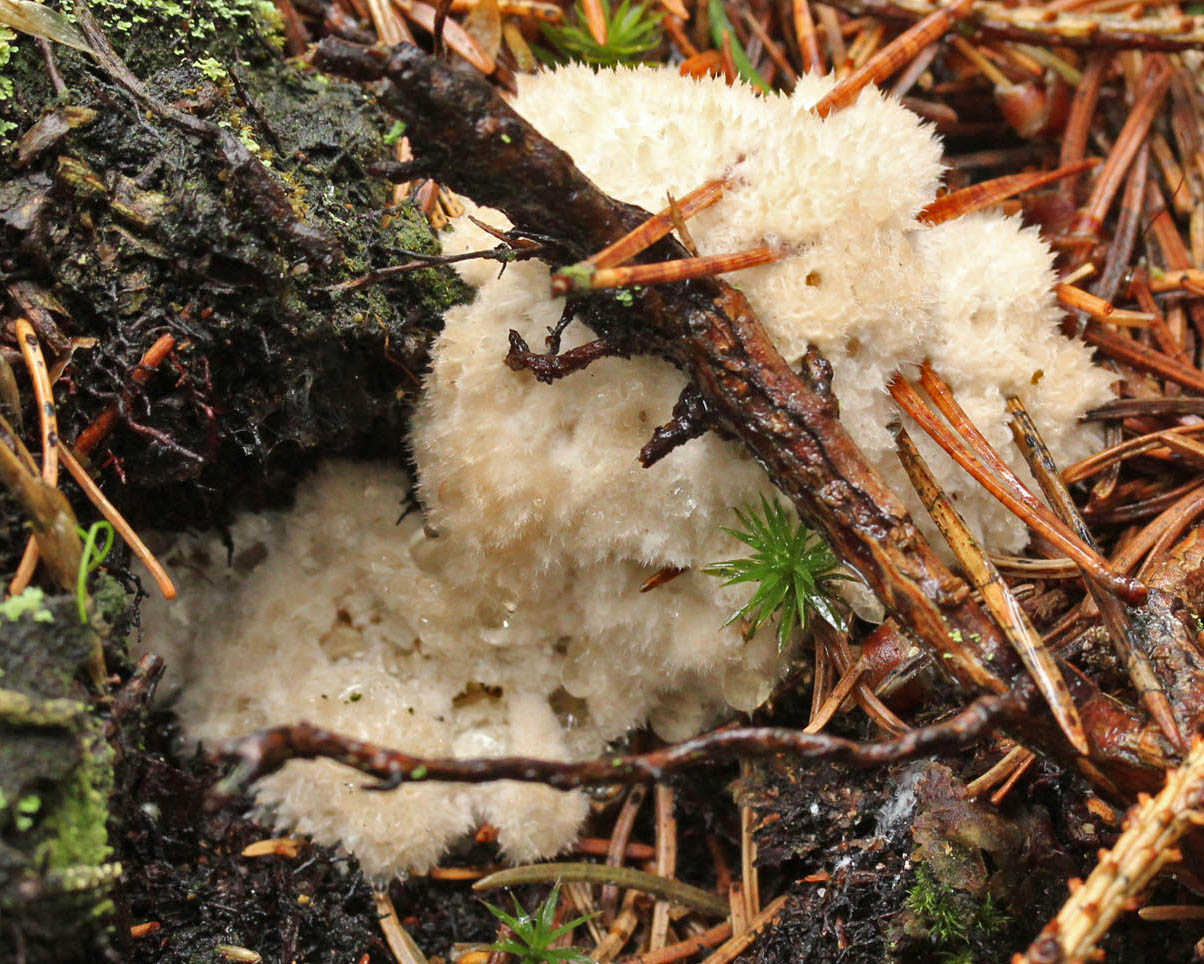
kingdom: Fungi
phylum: Basidiomycota
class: Agaricomycetes
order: Polyporales
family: Dacryobolaceae
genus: Postia
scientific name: Postia ptychogaster
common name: støvende kødporesvamp
